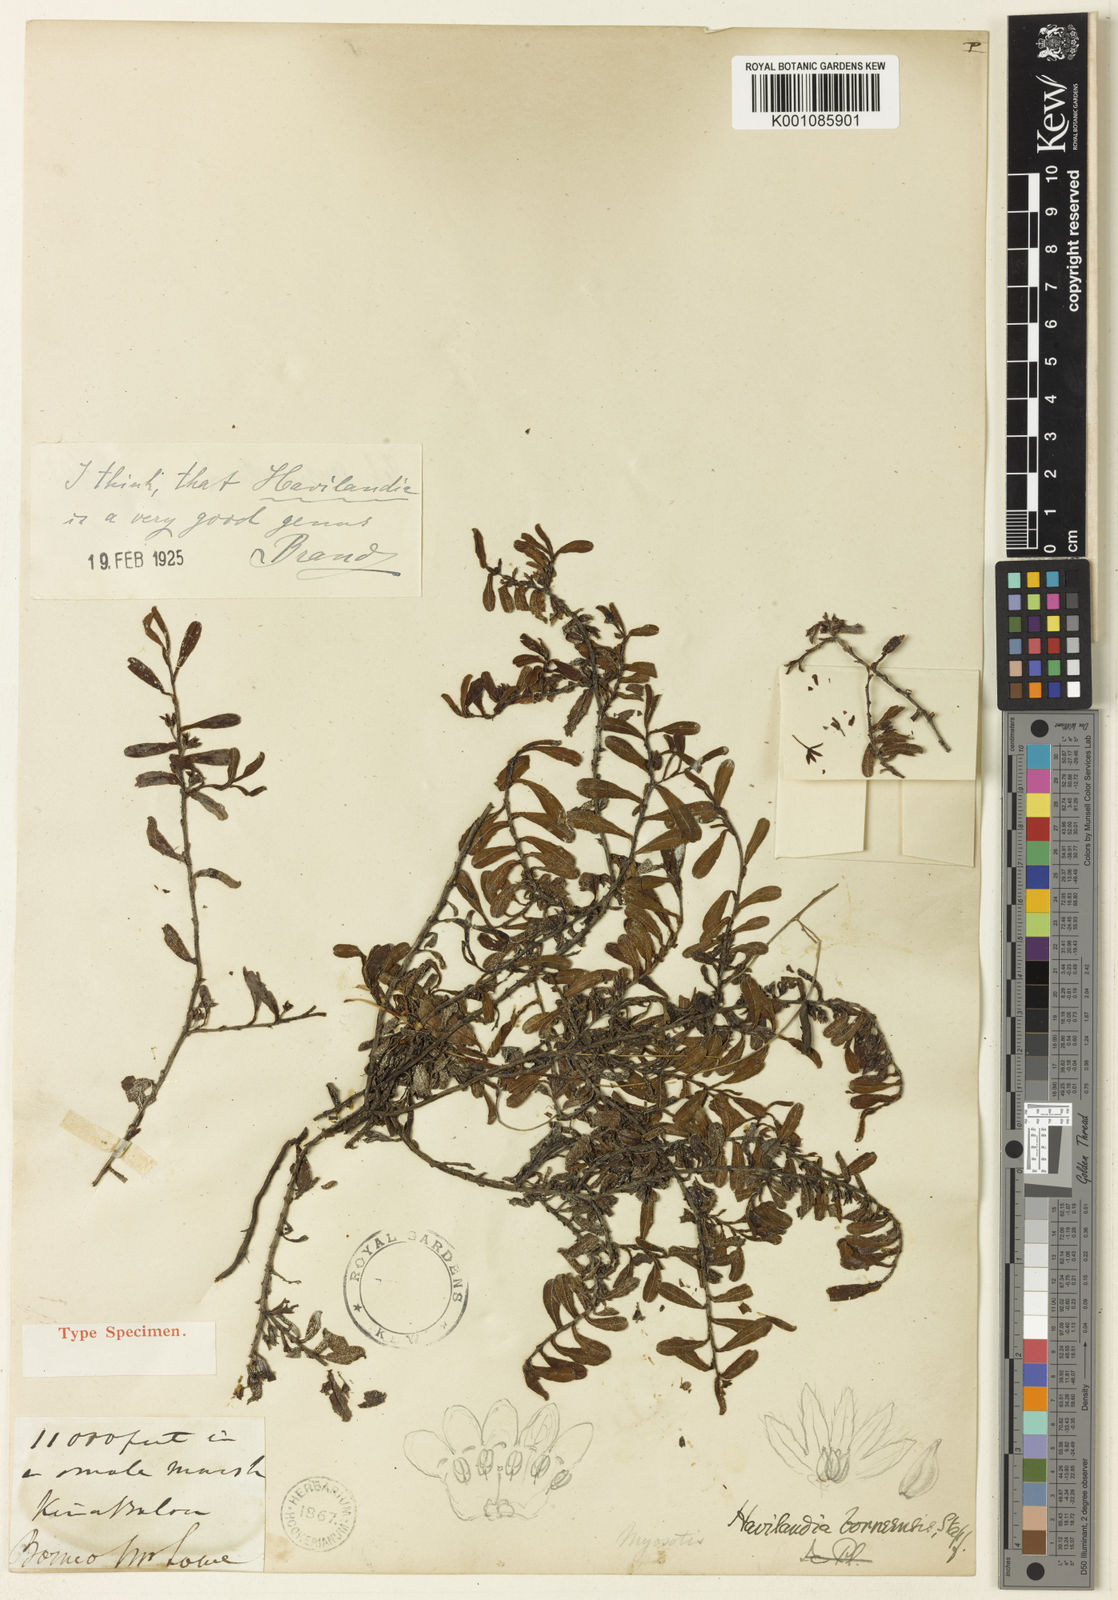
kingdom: Plantae
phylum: Tracheophyta
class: Magnoliopsida
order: Boraginales
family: Boraginaceae
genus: Trigonotis
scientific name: Trigonotis borneensis
